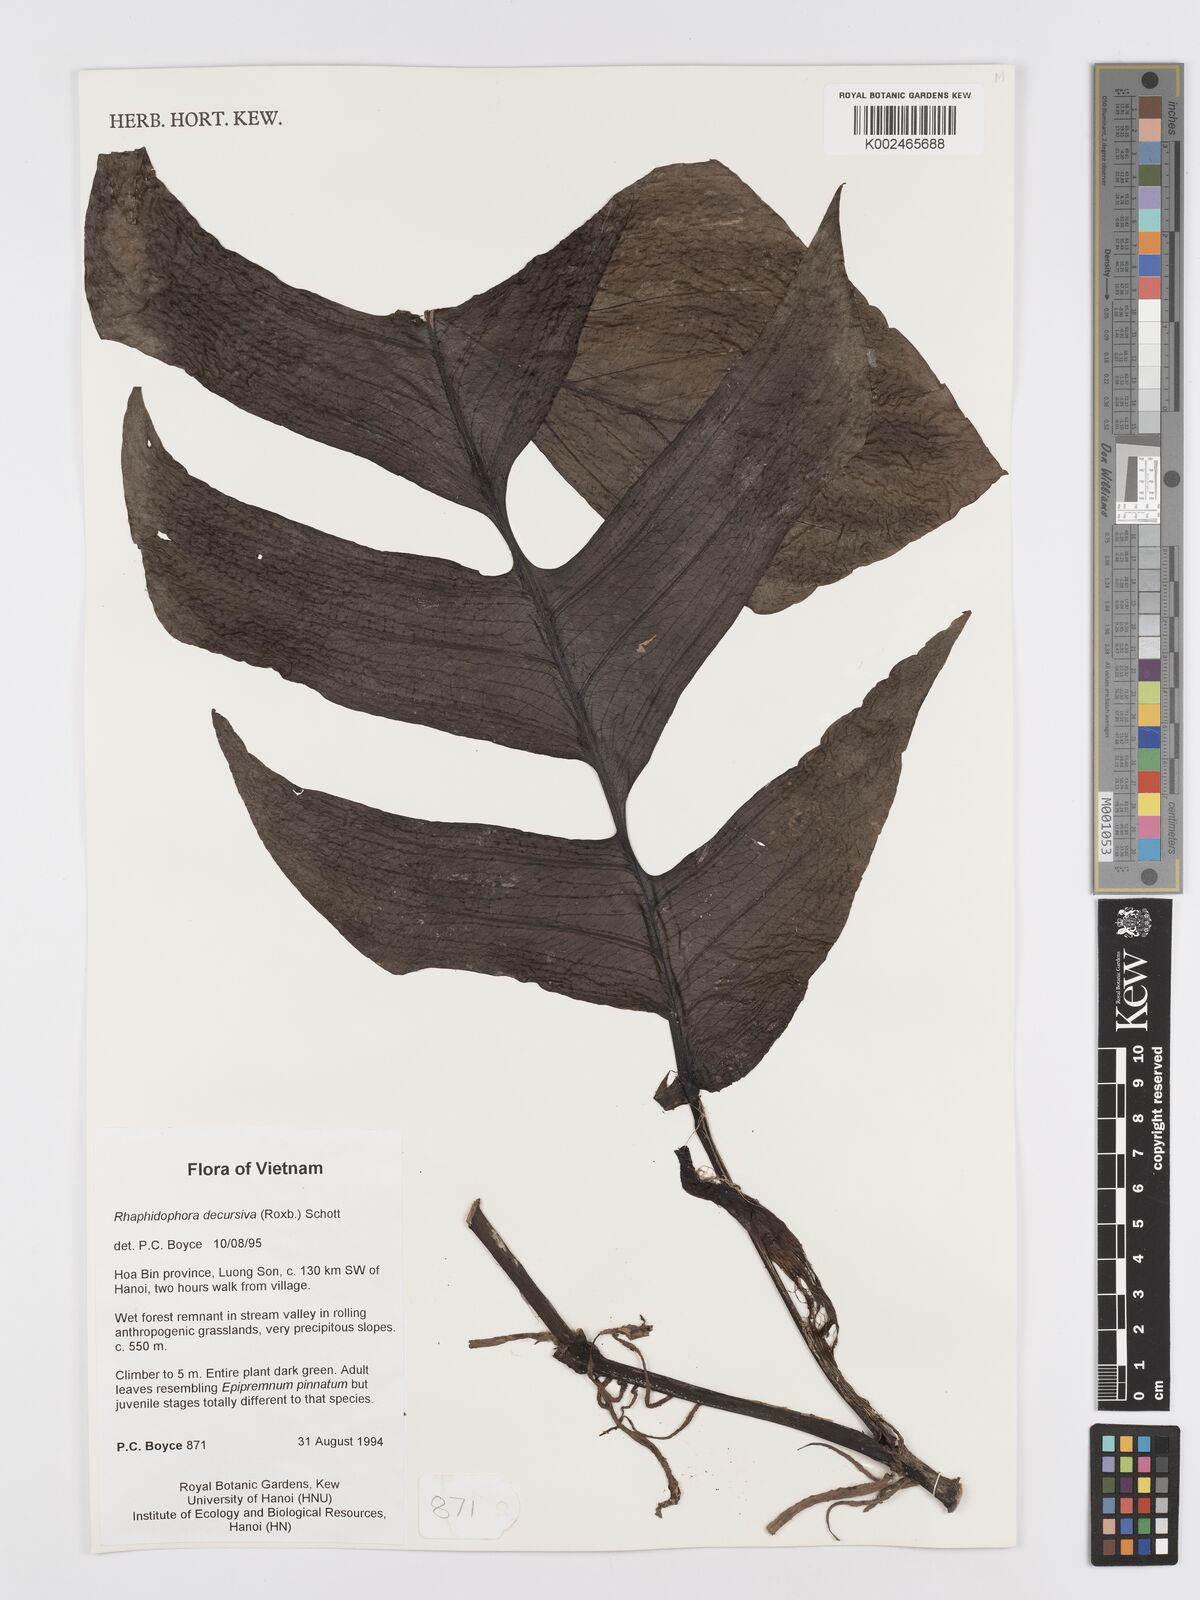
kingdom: Plantae
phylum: Tracheophyta
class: Liliopsida
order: Alismatales
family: Araceae
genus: Rhaphidophora
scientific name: Rhaphidophora crassicaulis
